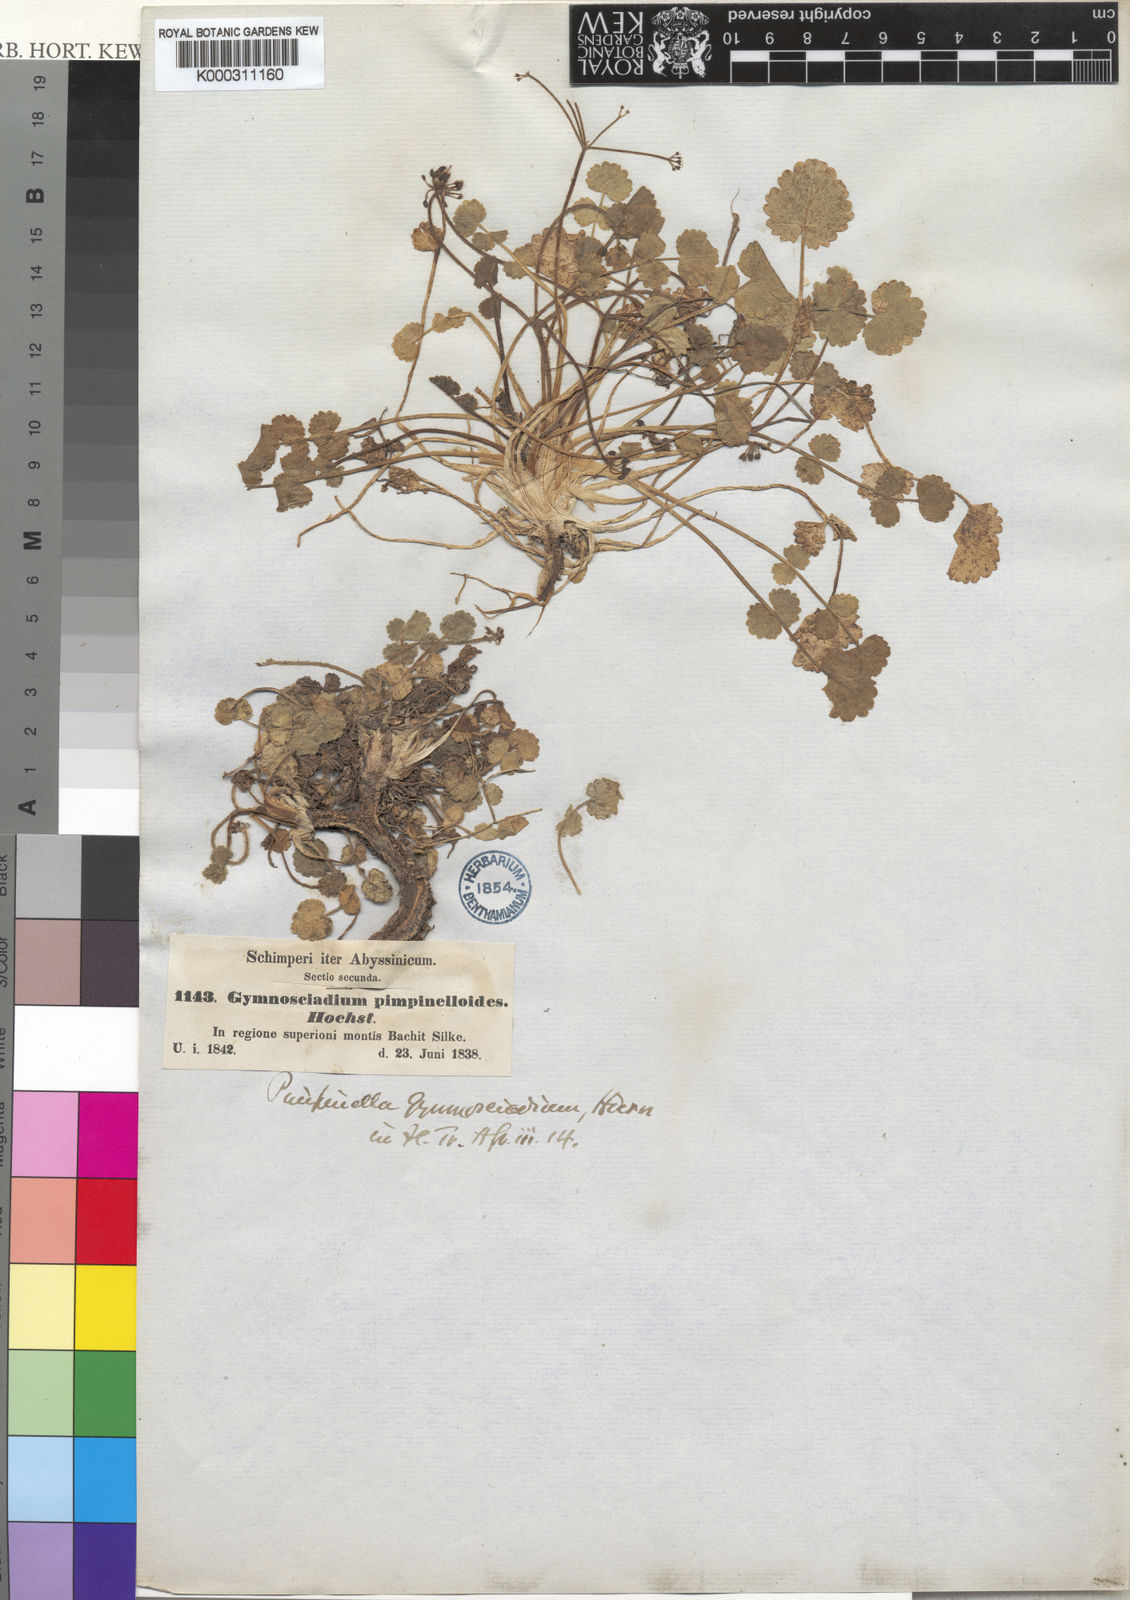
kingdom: Plantae
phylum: Tracheophyta
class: Magnoliopsida
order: Apiales
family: Apiaceae
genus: Pimpinella
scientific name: Pimpinella pimpinelloides
